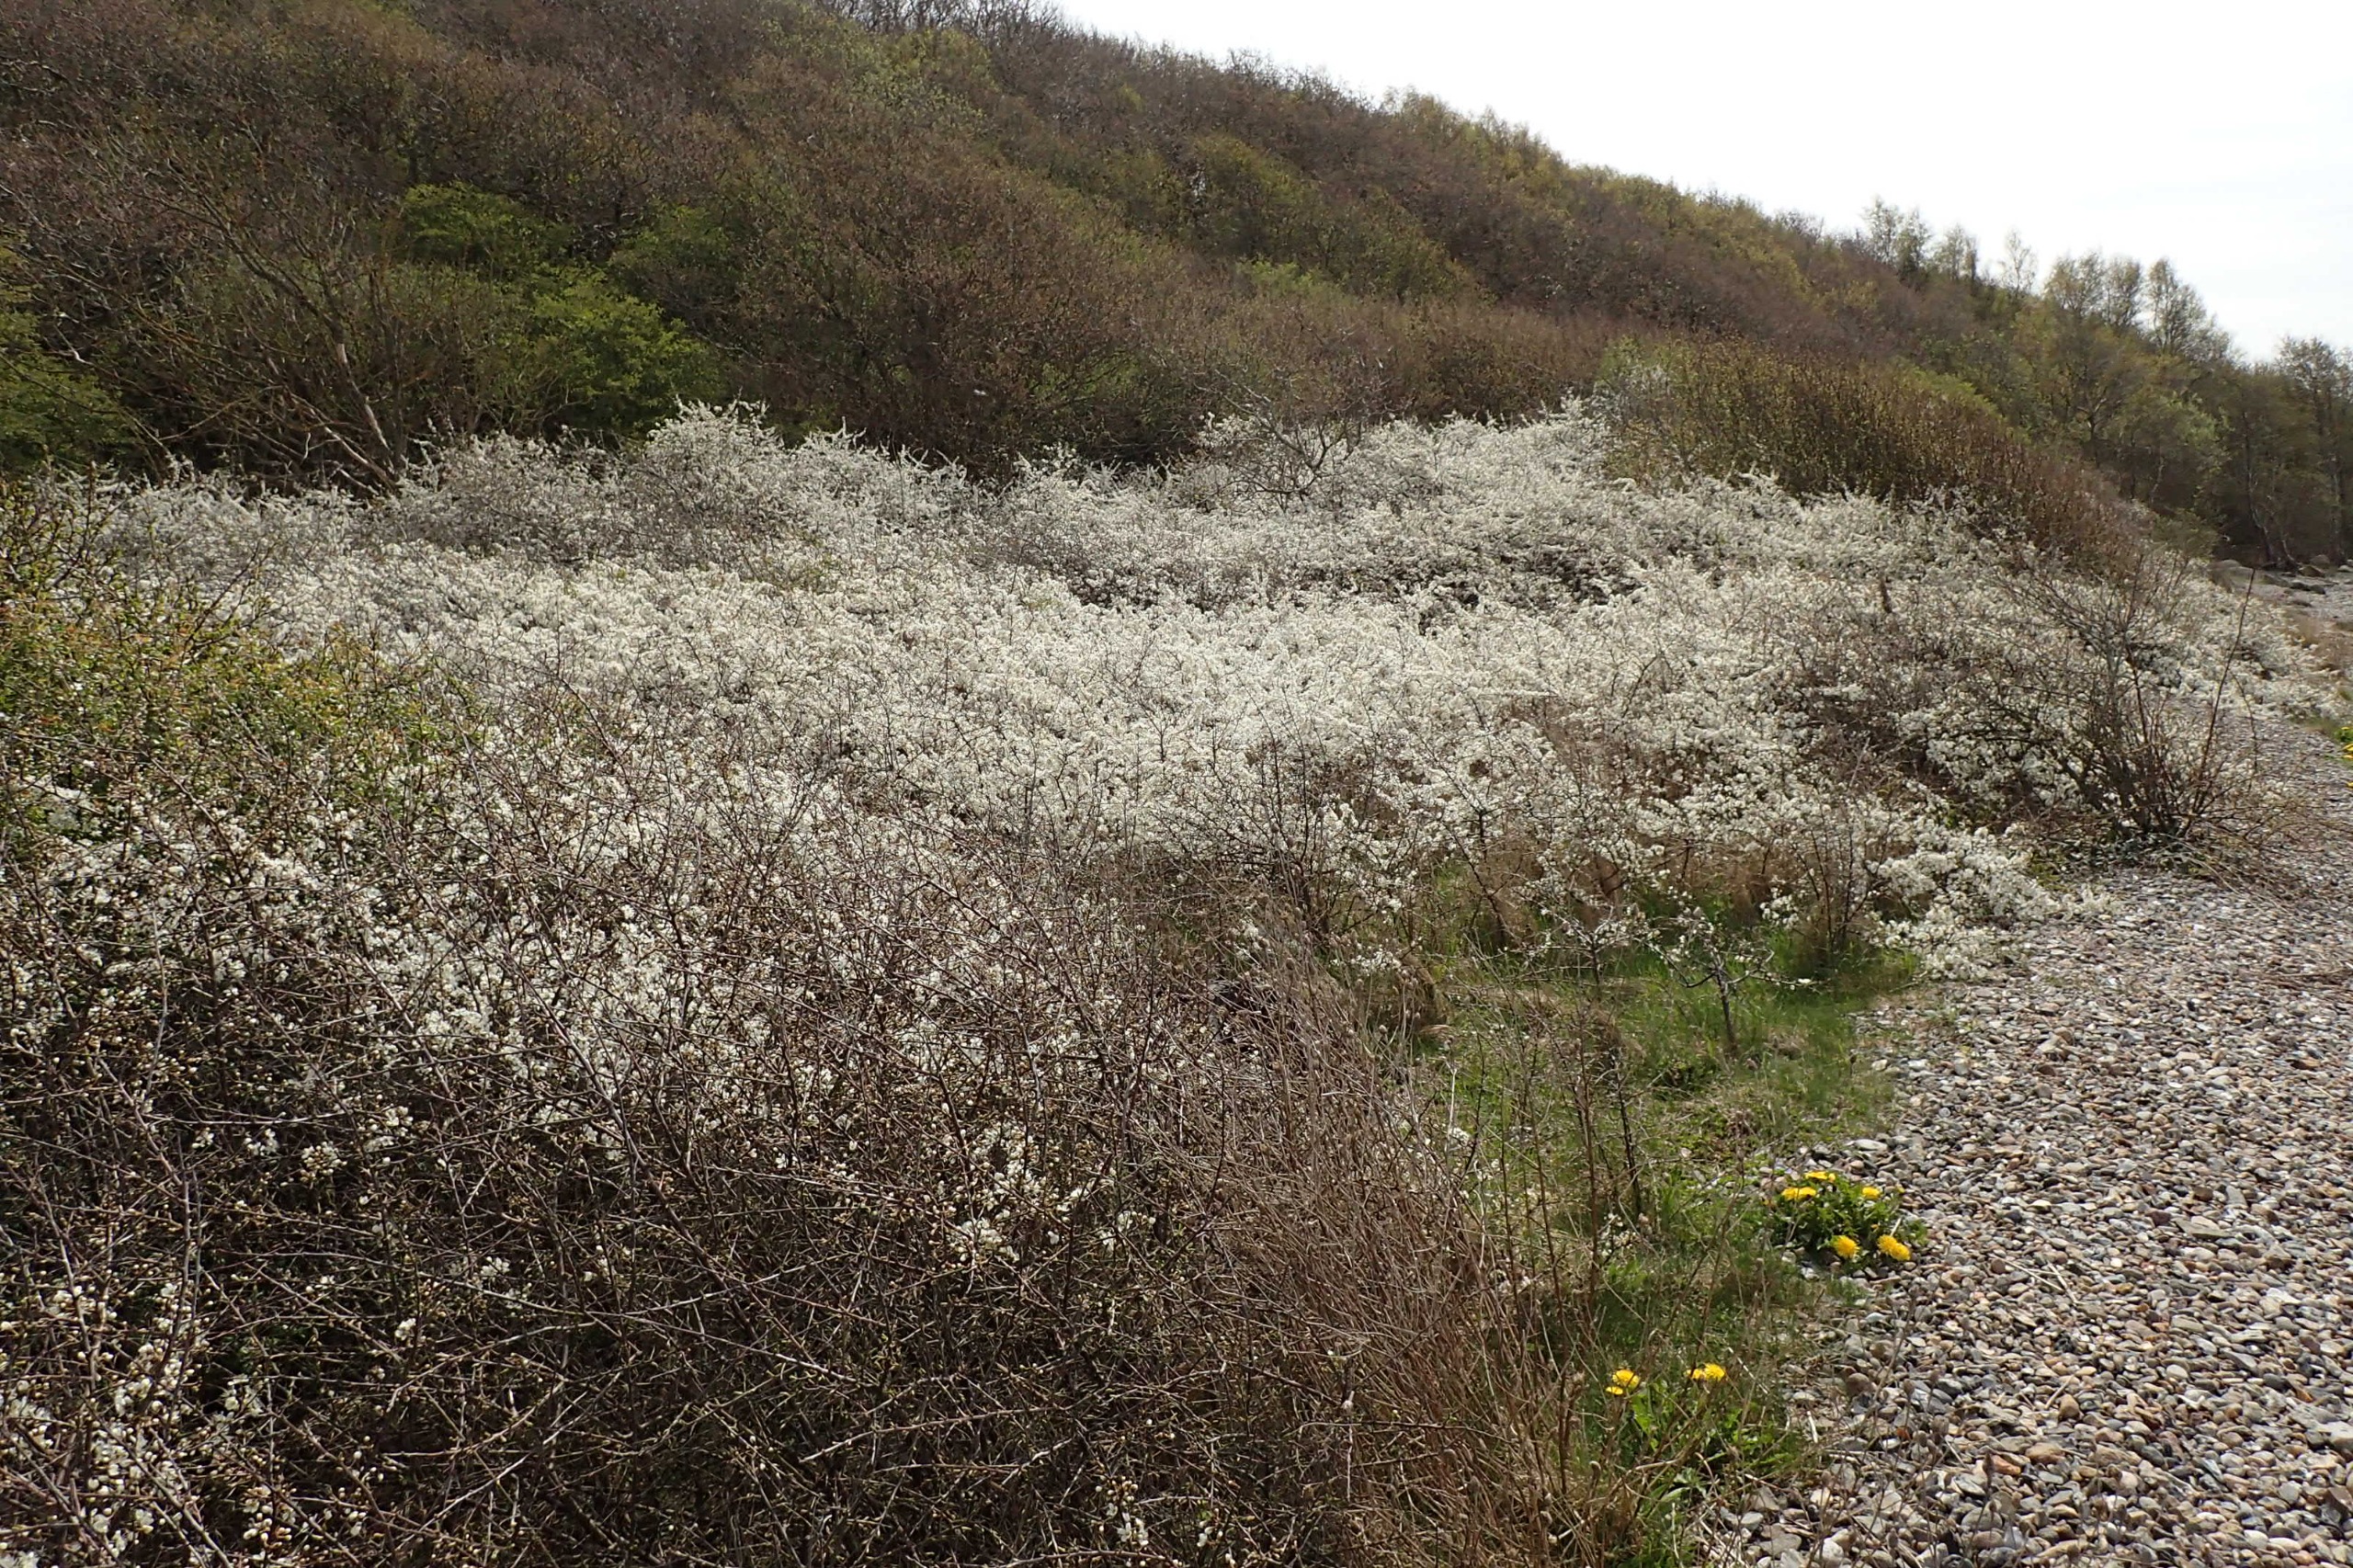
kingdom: Plantae
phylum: Tracheophyta
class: Magnoliopsida
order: Rosales
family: Rosaceae
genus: Prunus
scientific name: Prunus spinosa
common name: Slåen
